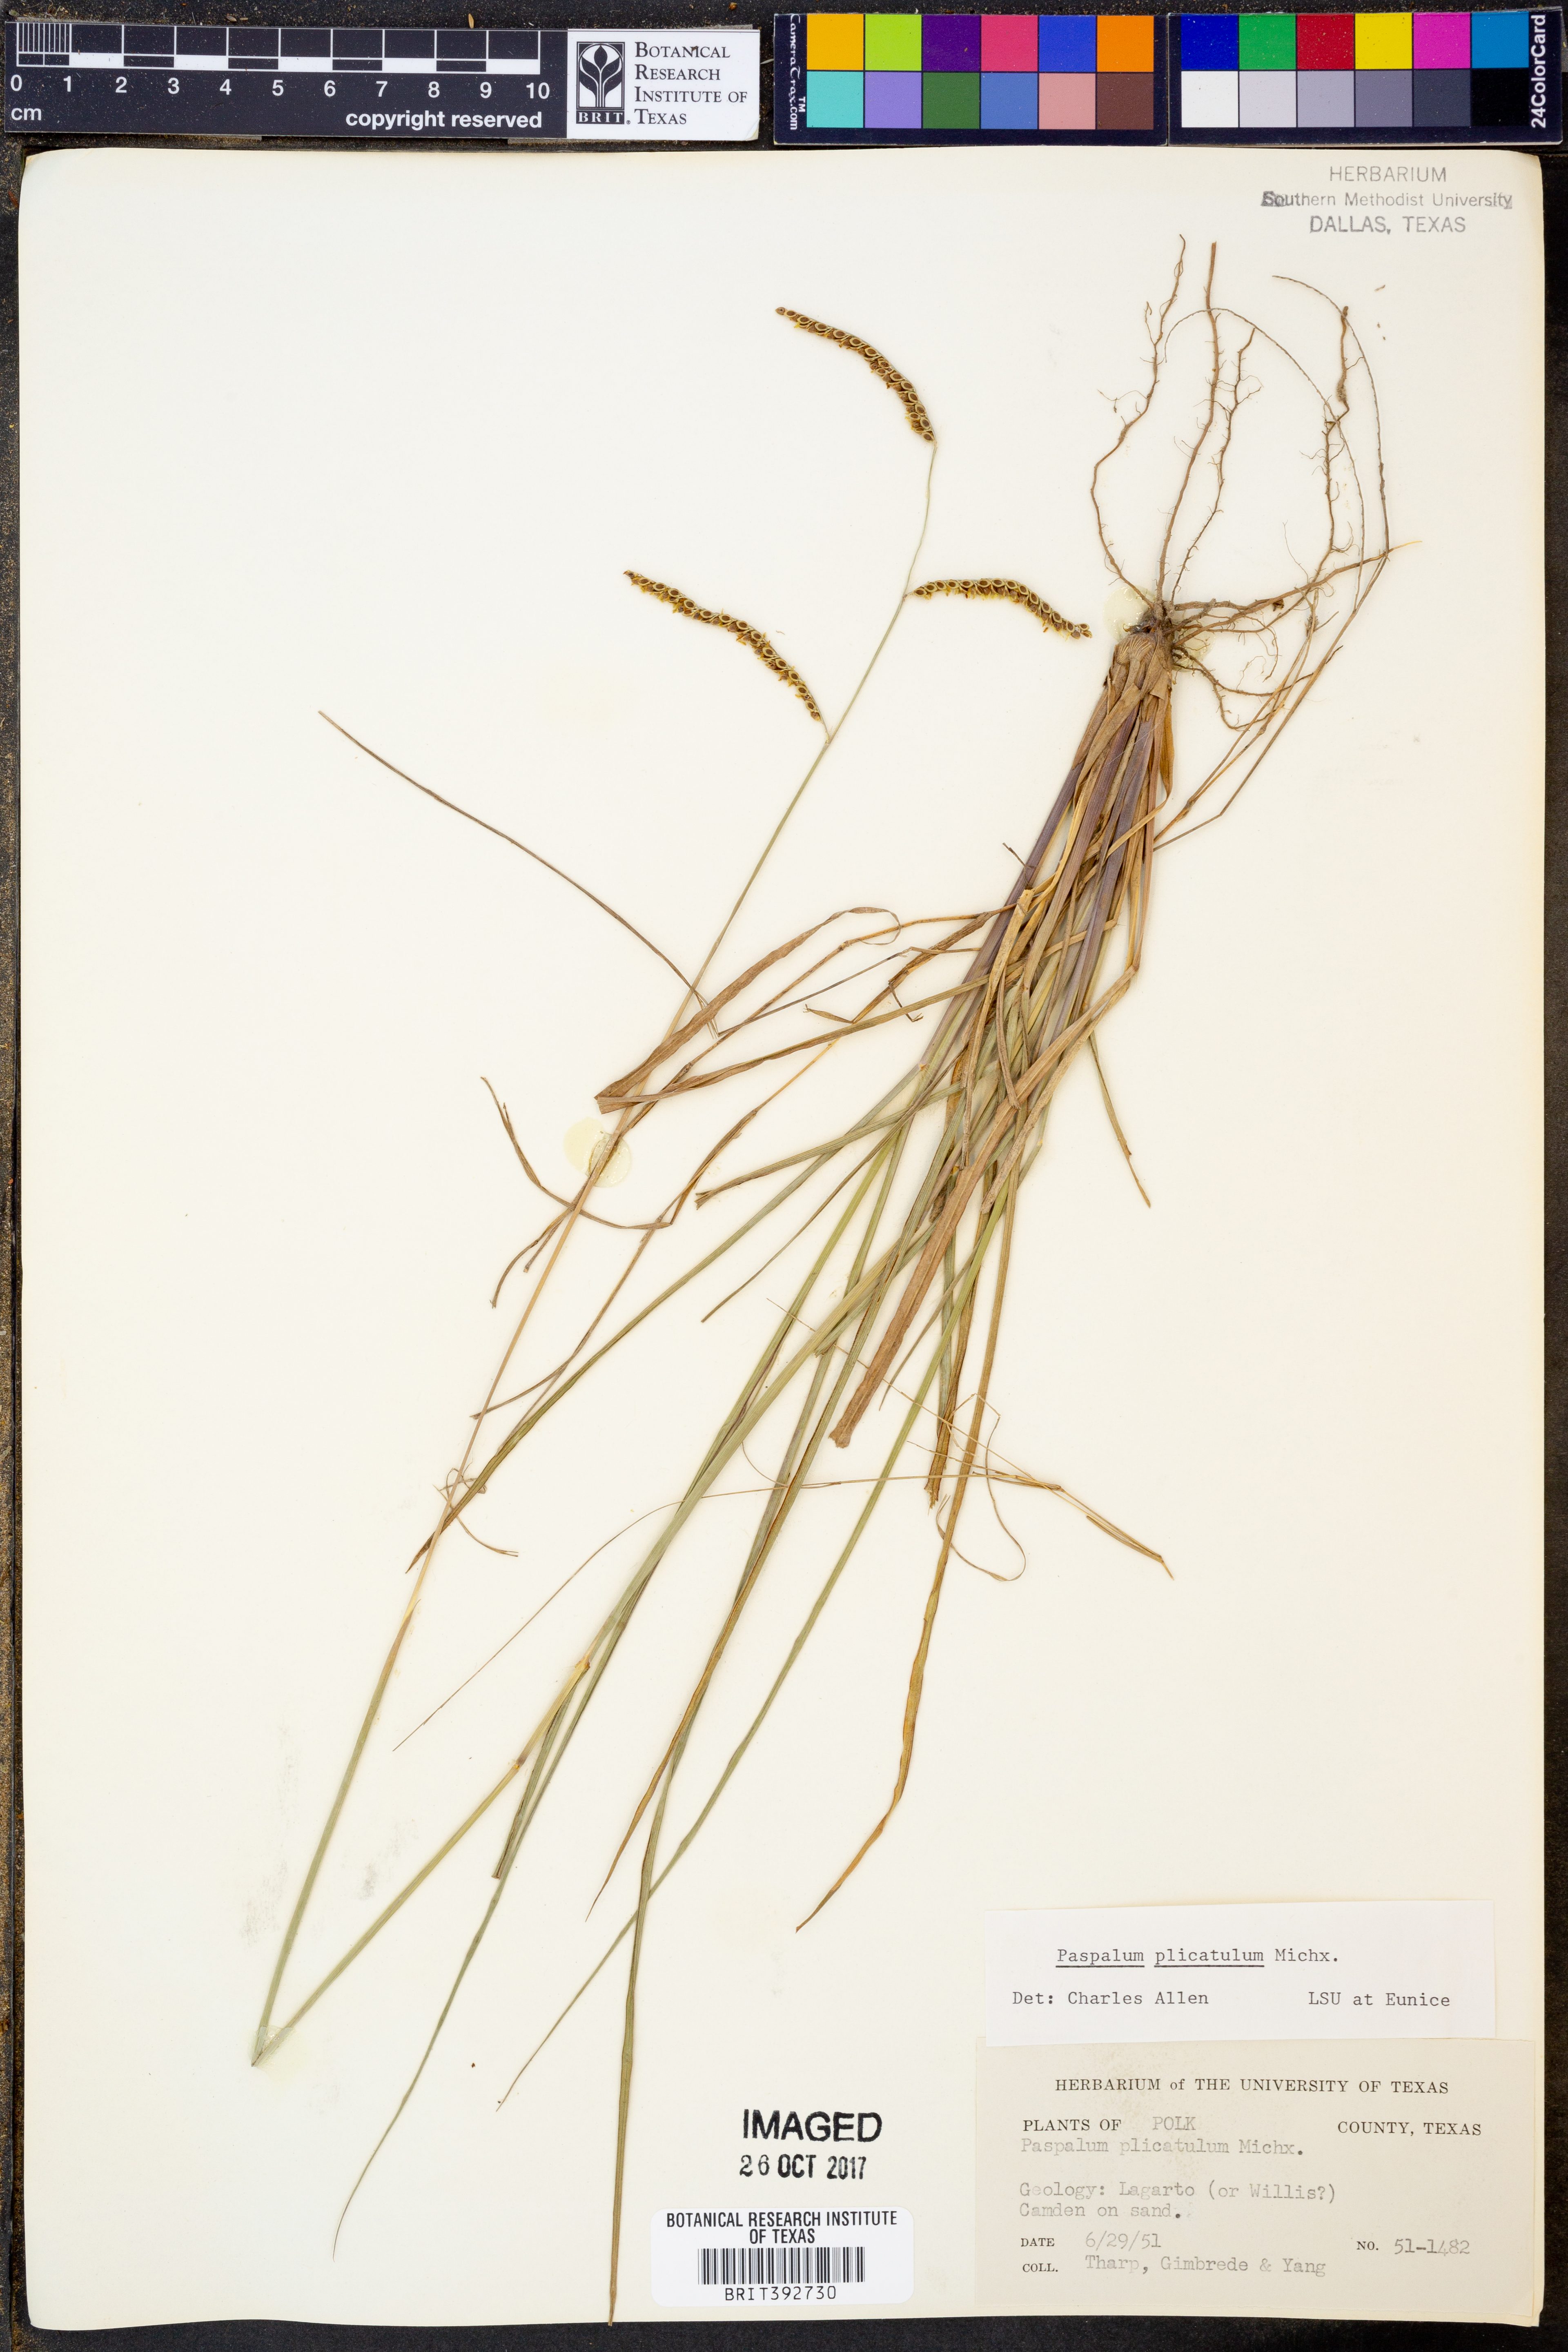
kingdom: Plantae
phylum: Tracheophyta
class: Liliopsida
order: Poales
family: Poaceae
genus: Paspalum
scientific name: Paspalum plicatulum
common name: Top paspalum
